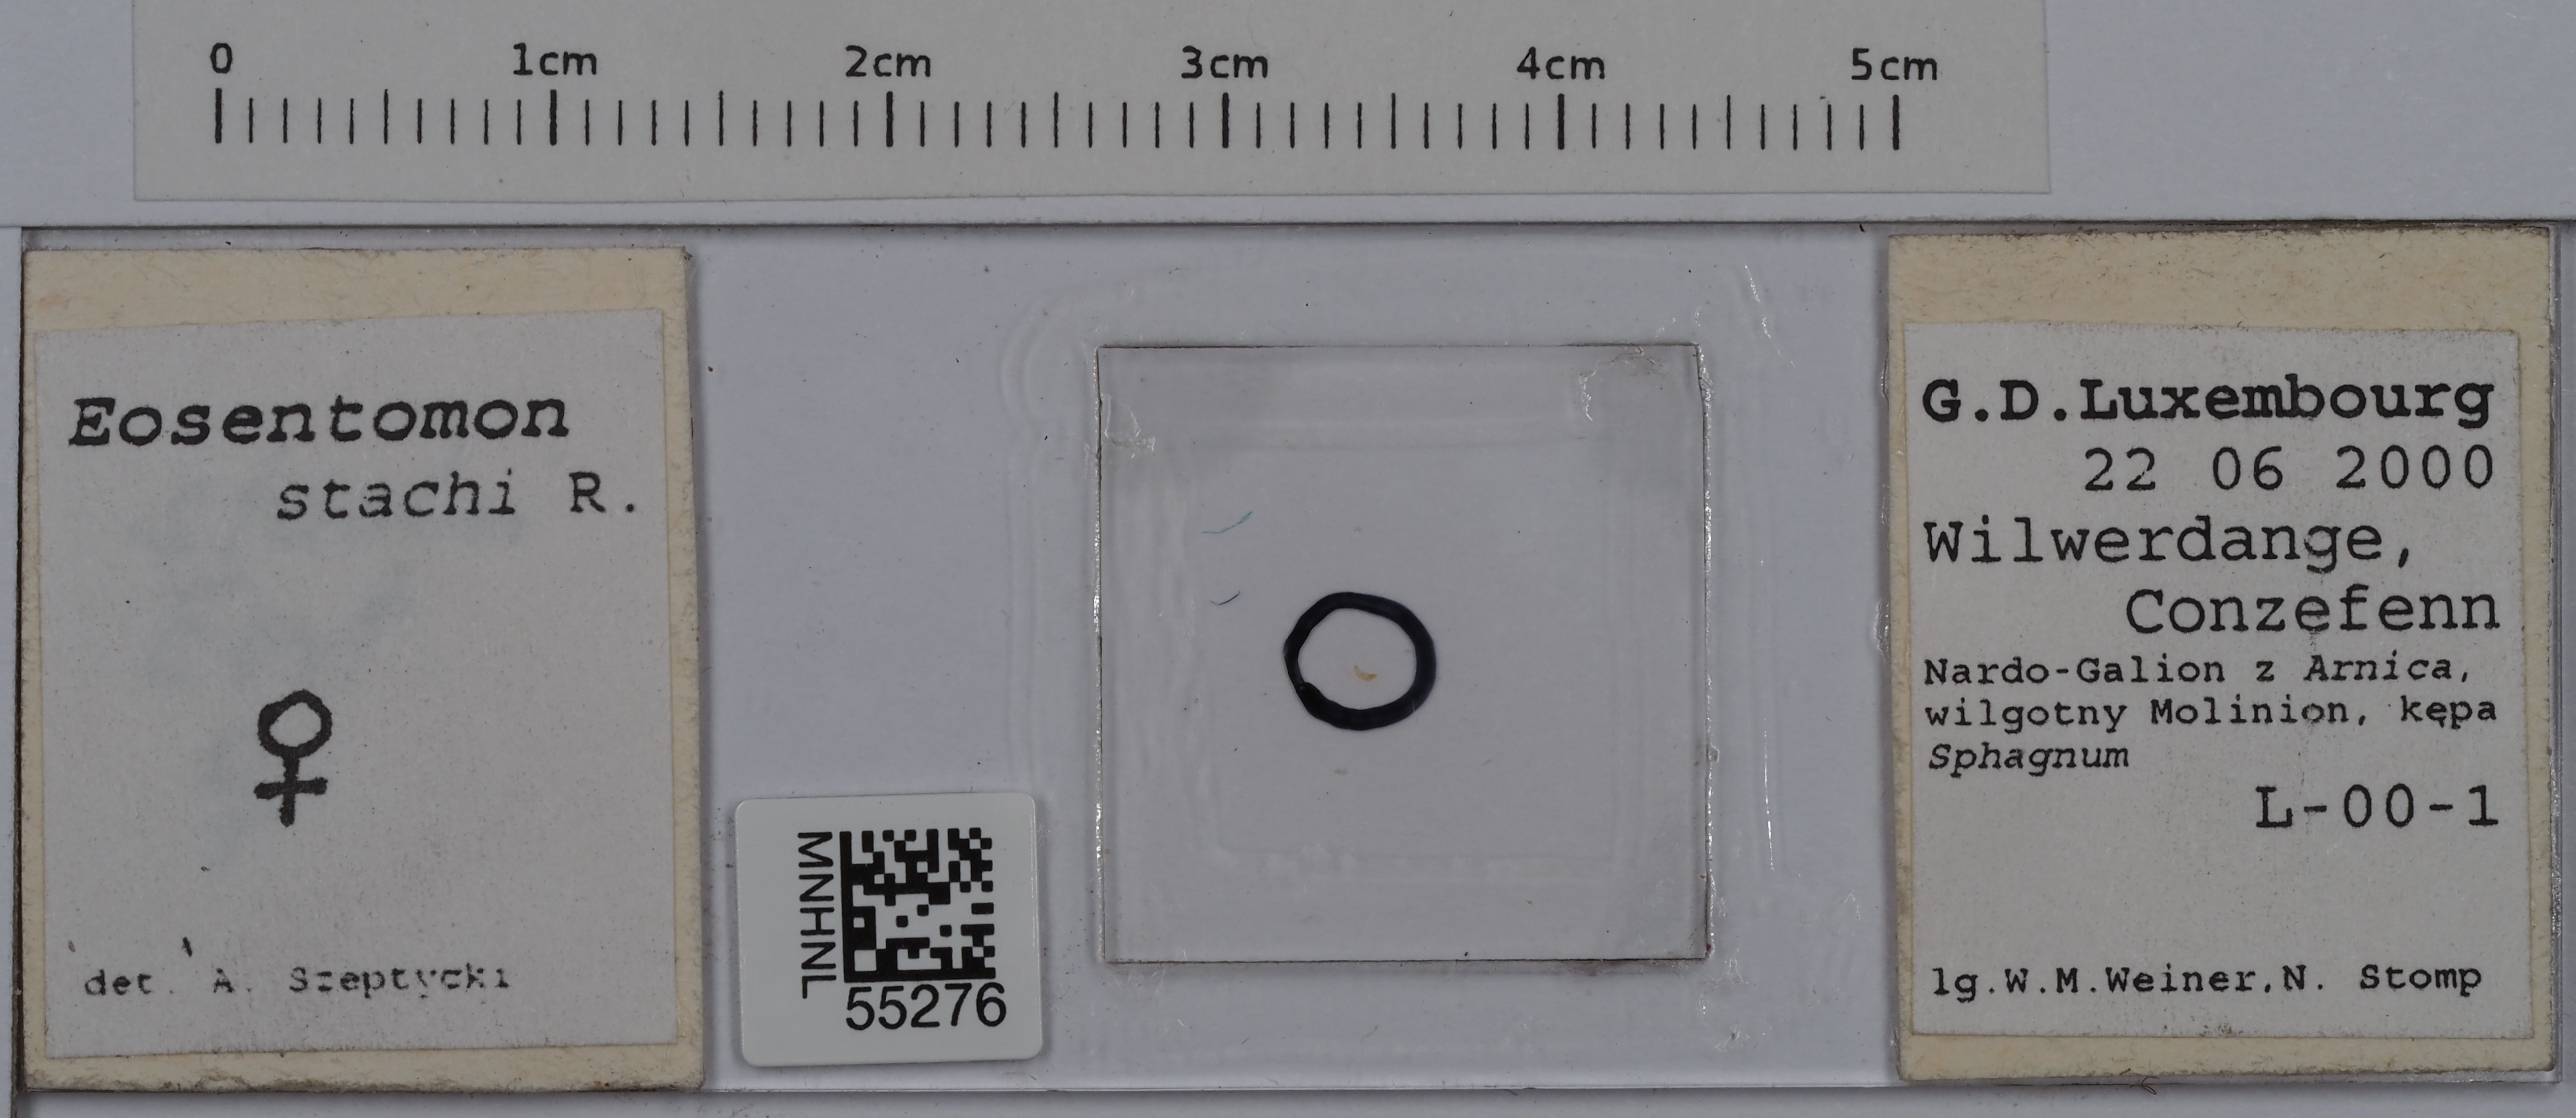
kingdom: Animalia
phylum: Arthropoda
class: Protura
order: Protura
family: Eosentomidae
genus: Eosentomon
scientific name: Eosentomon stachi
